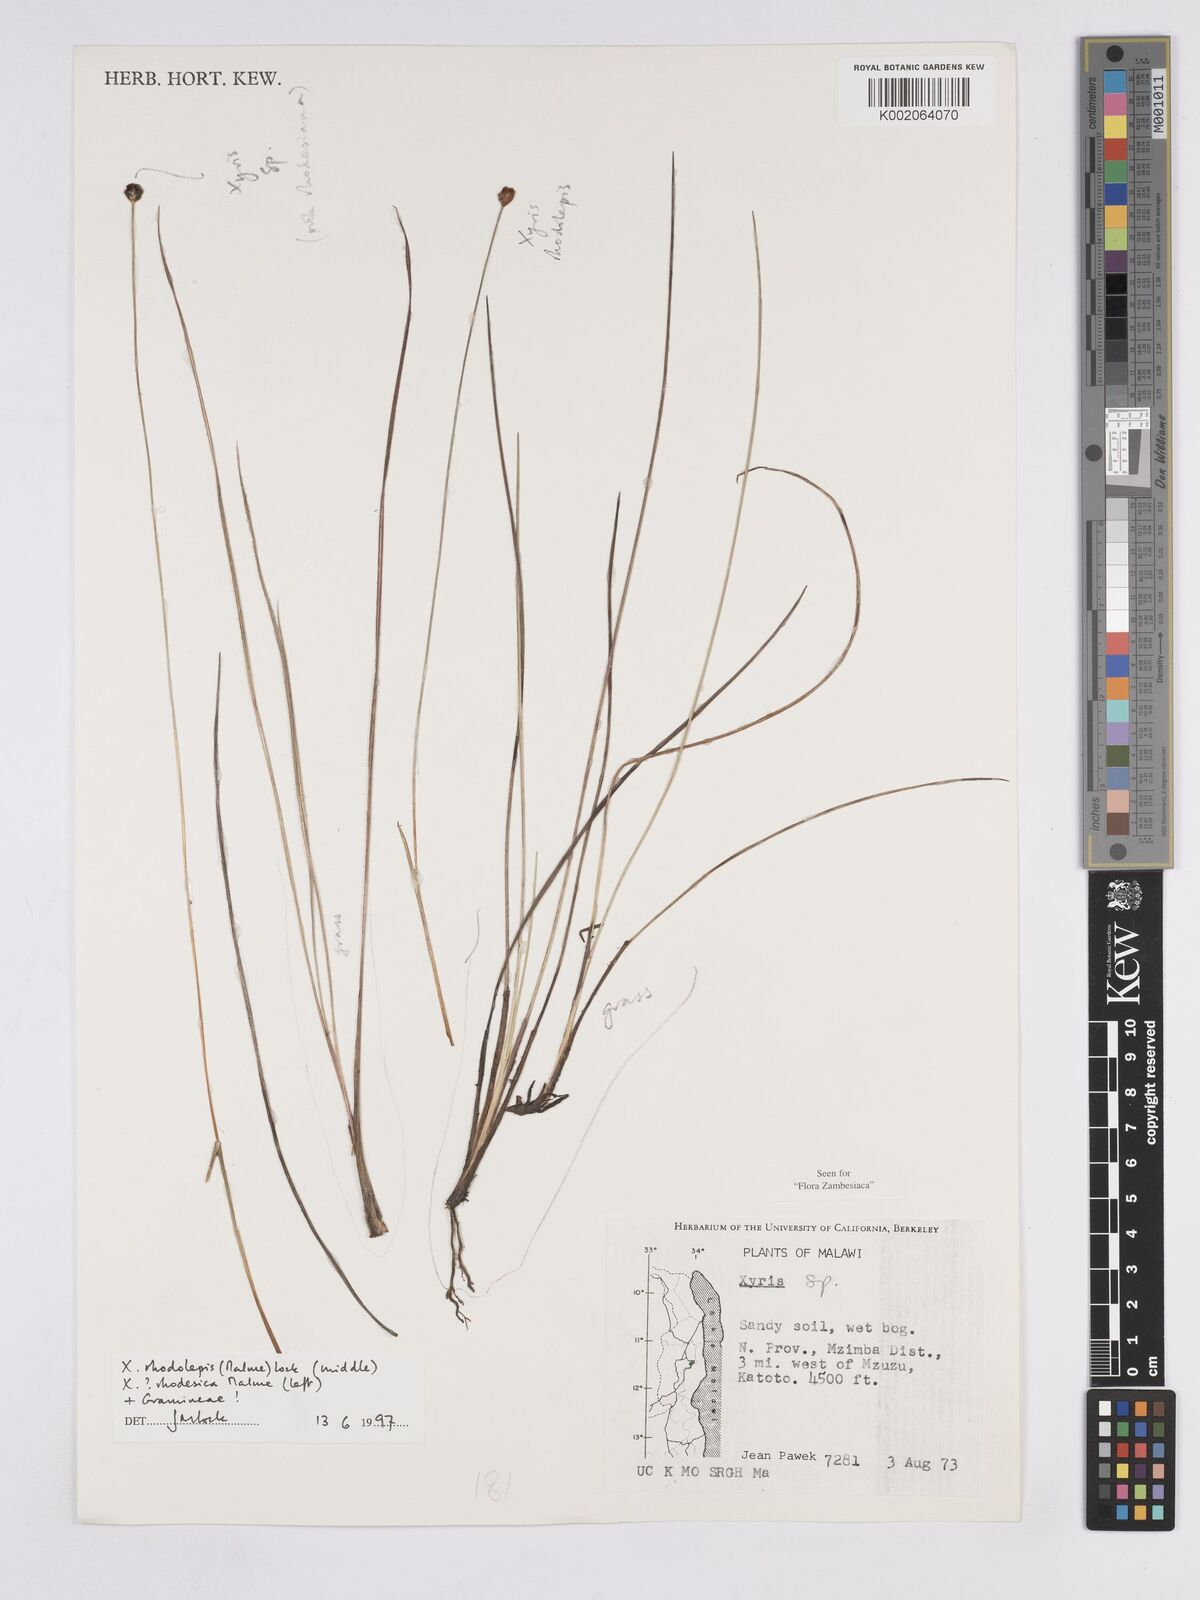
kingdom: Plantae
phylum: Tracheophyta
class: Liliopsida
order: Poales
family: Xyridaceae
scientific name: Xyridaceae
